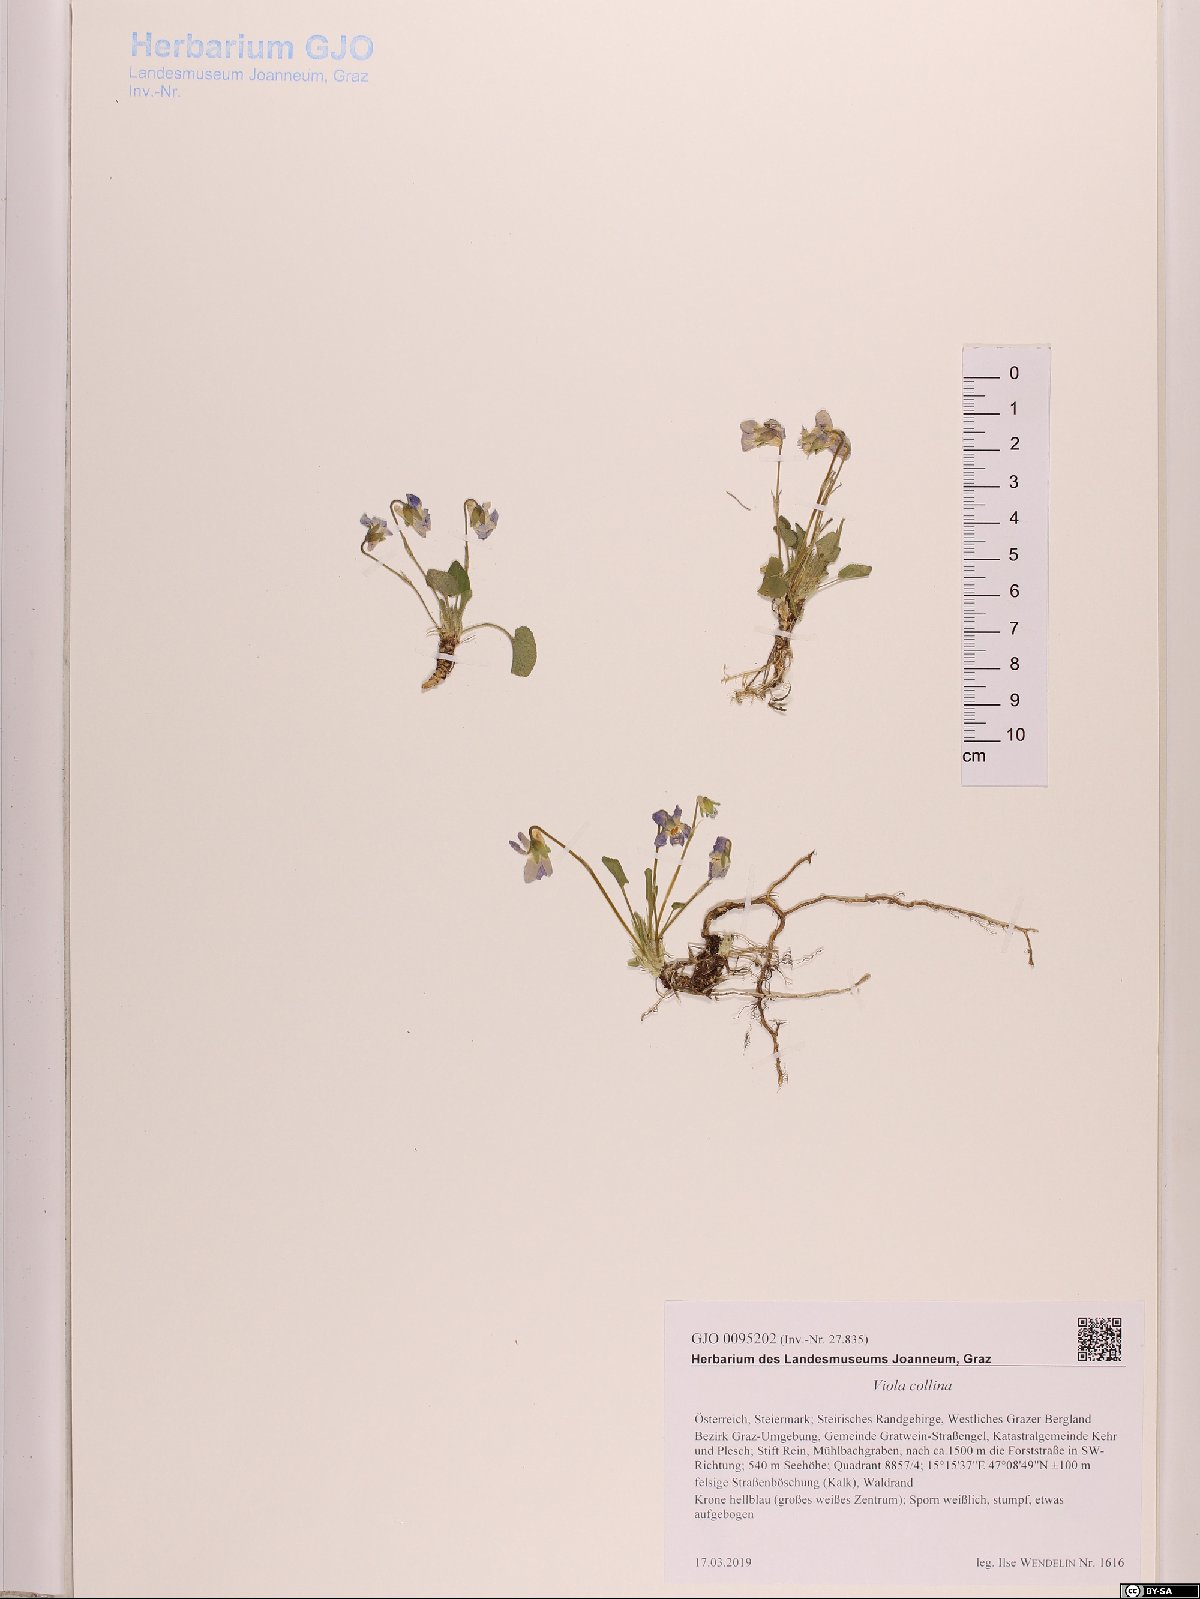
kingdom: Plantae
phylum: Tracheophyta
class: Magnoliopsida
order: Malpighiales
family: Violaceae
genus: Viola
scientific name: Viola collina
